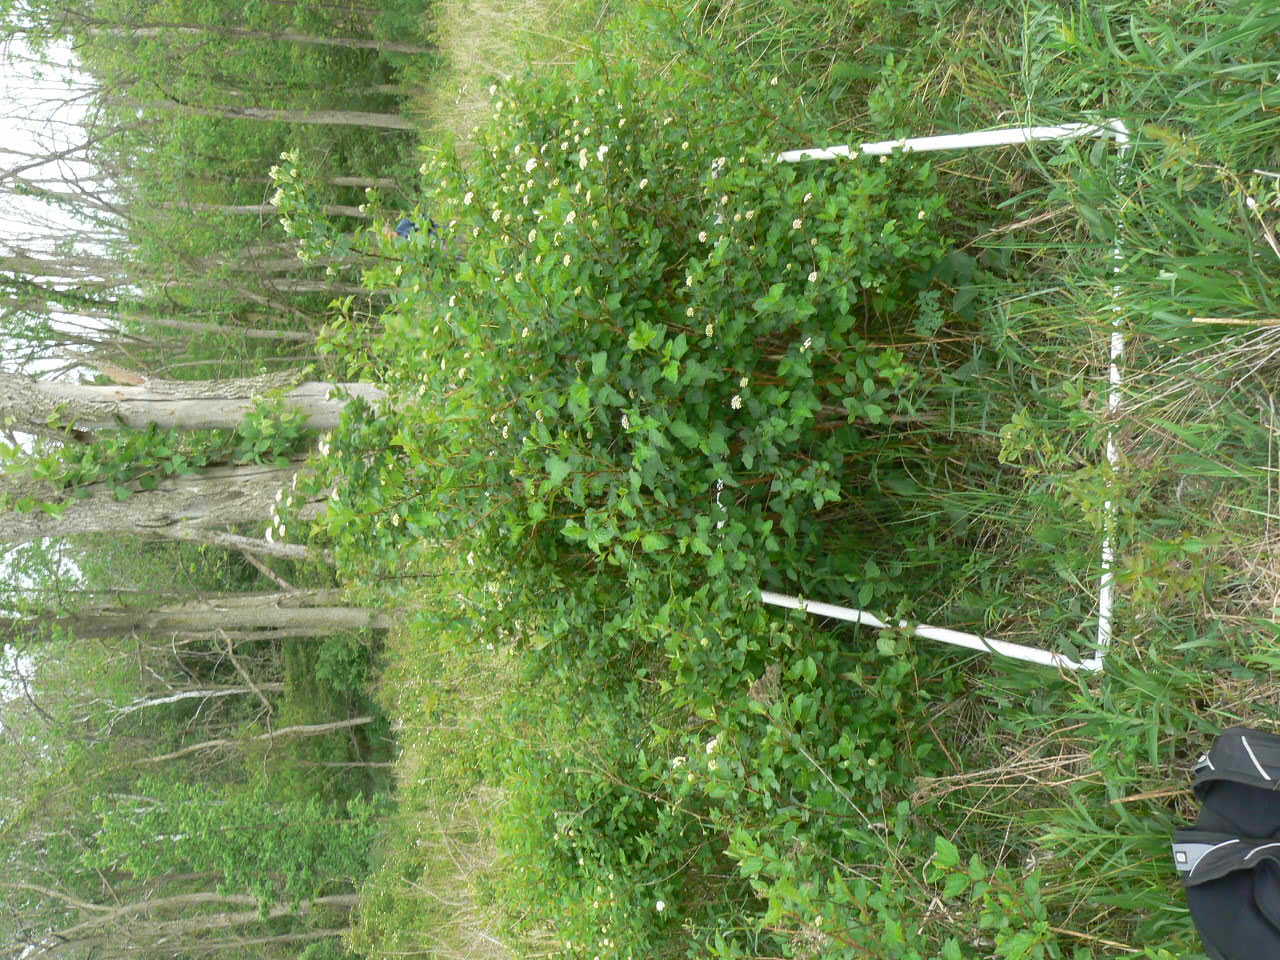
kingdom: Plantae
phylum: Tracheophyta
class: Liliopsida
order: Poales
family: Cyperaceae
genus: Schoenoplectus
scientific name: Schoenoplectus pungens
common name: Sharp club-rush
